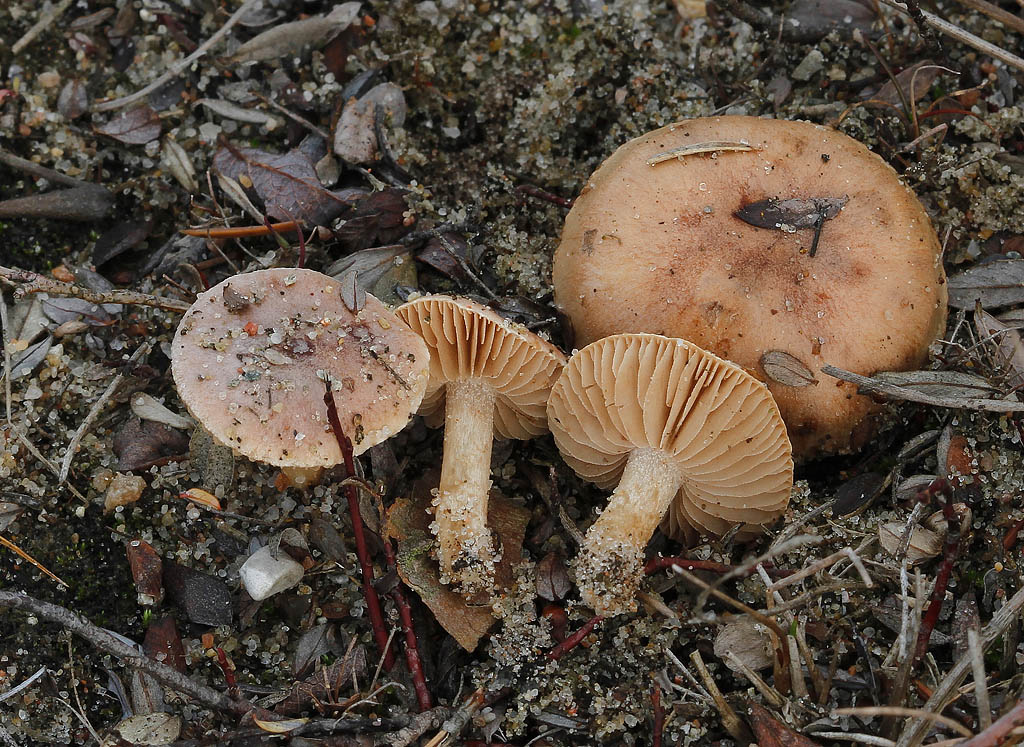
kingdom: Fungi
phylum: Basidiomycota
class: Agaricomycetes
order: Agaricales
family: Hymenogastraceae
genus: Hebeloma
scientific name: Hebeloma vaccinum
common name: ko-tåreblad
